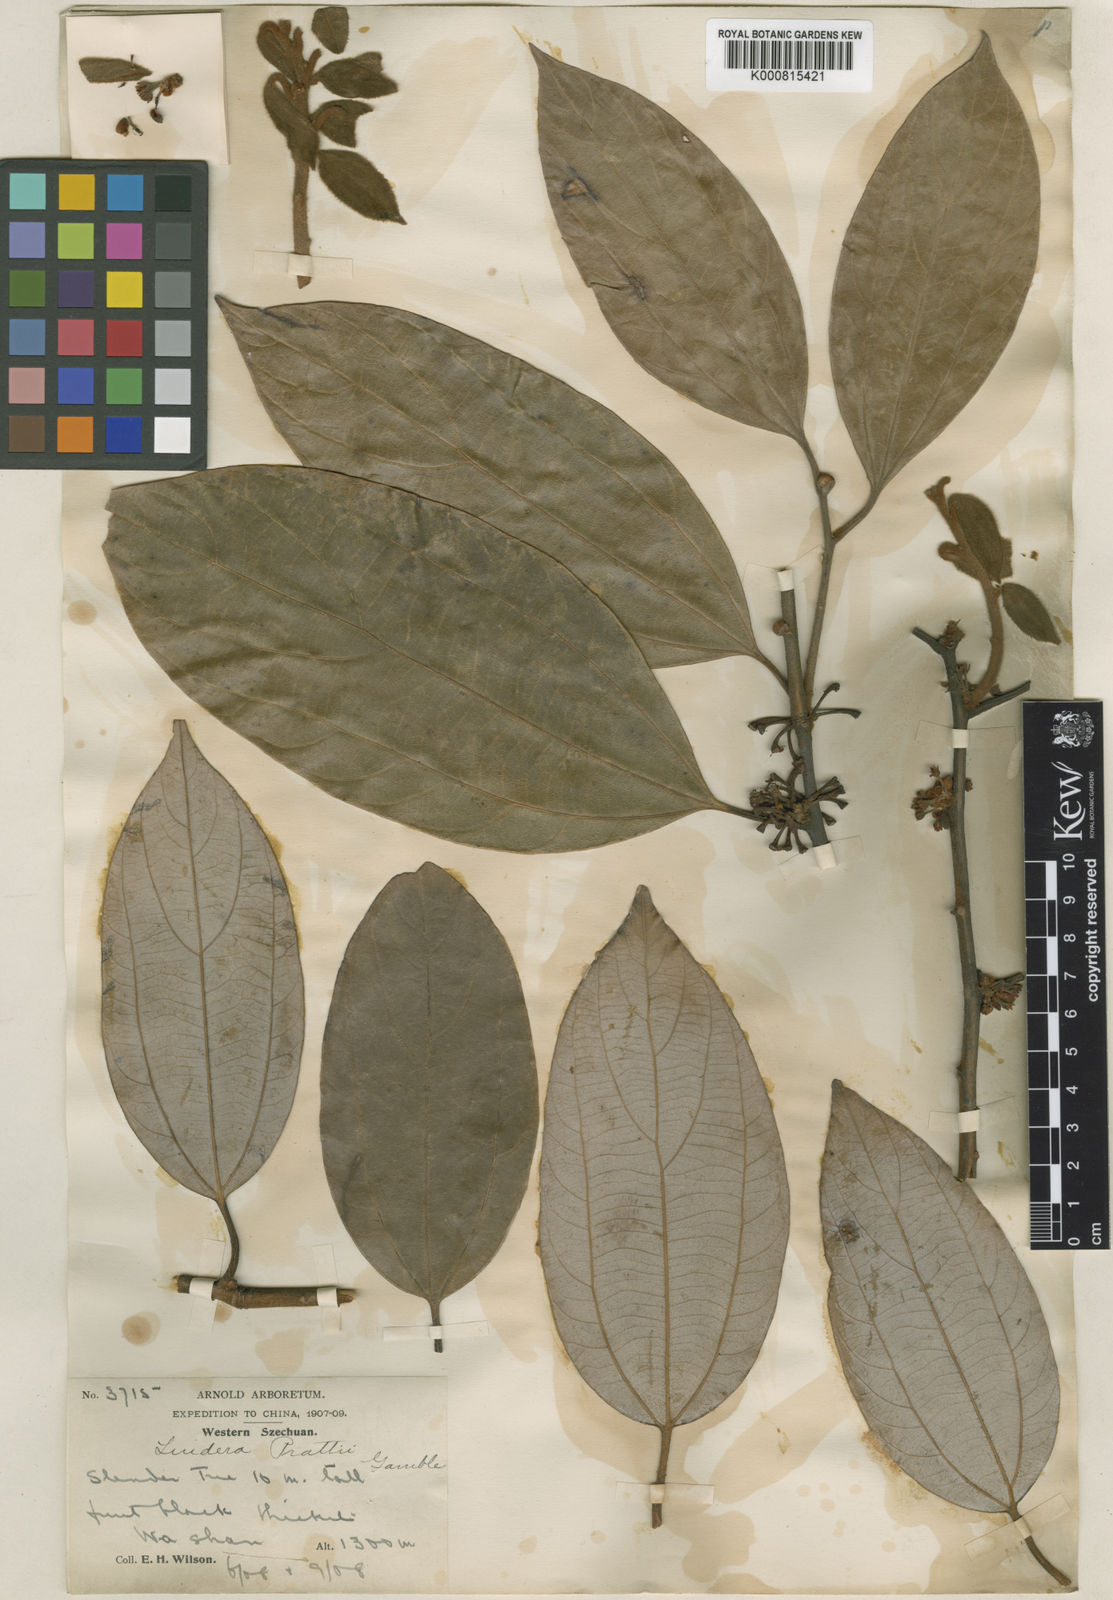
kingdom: Plantae
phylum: Tracheophyta
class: Magnoliopsida
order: Laurales
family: Lauraceae
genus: Lindera
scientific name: Lindera prattii
